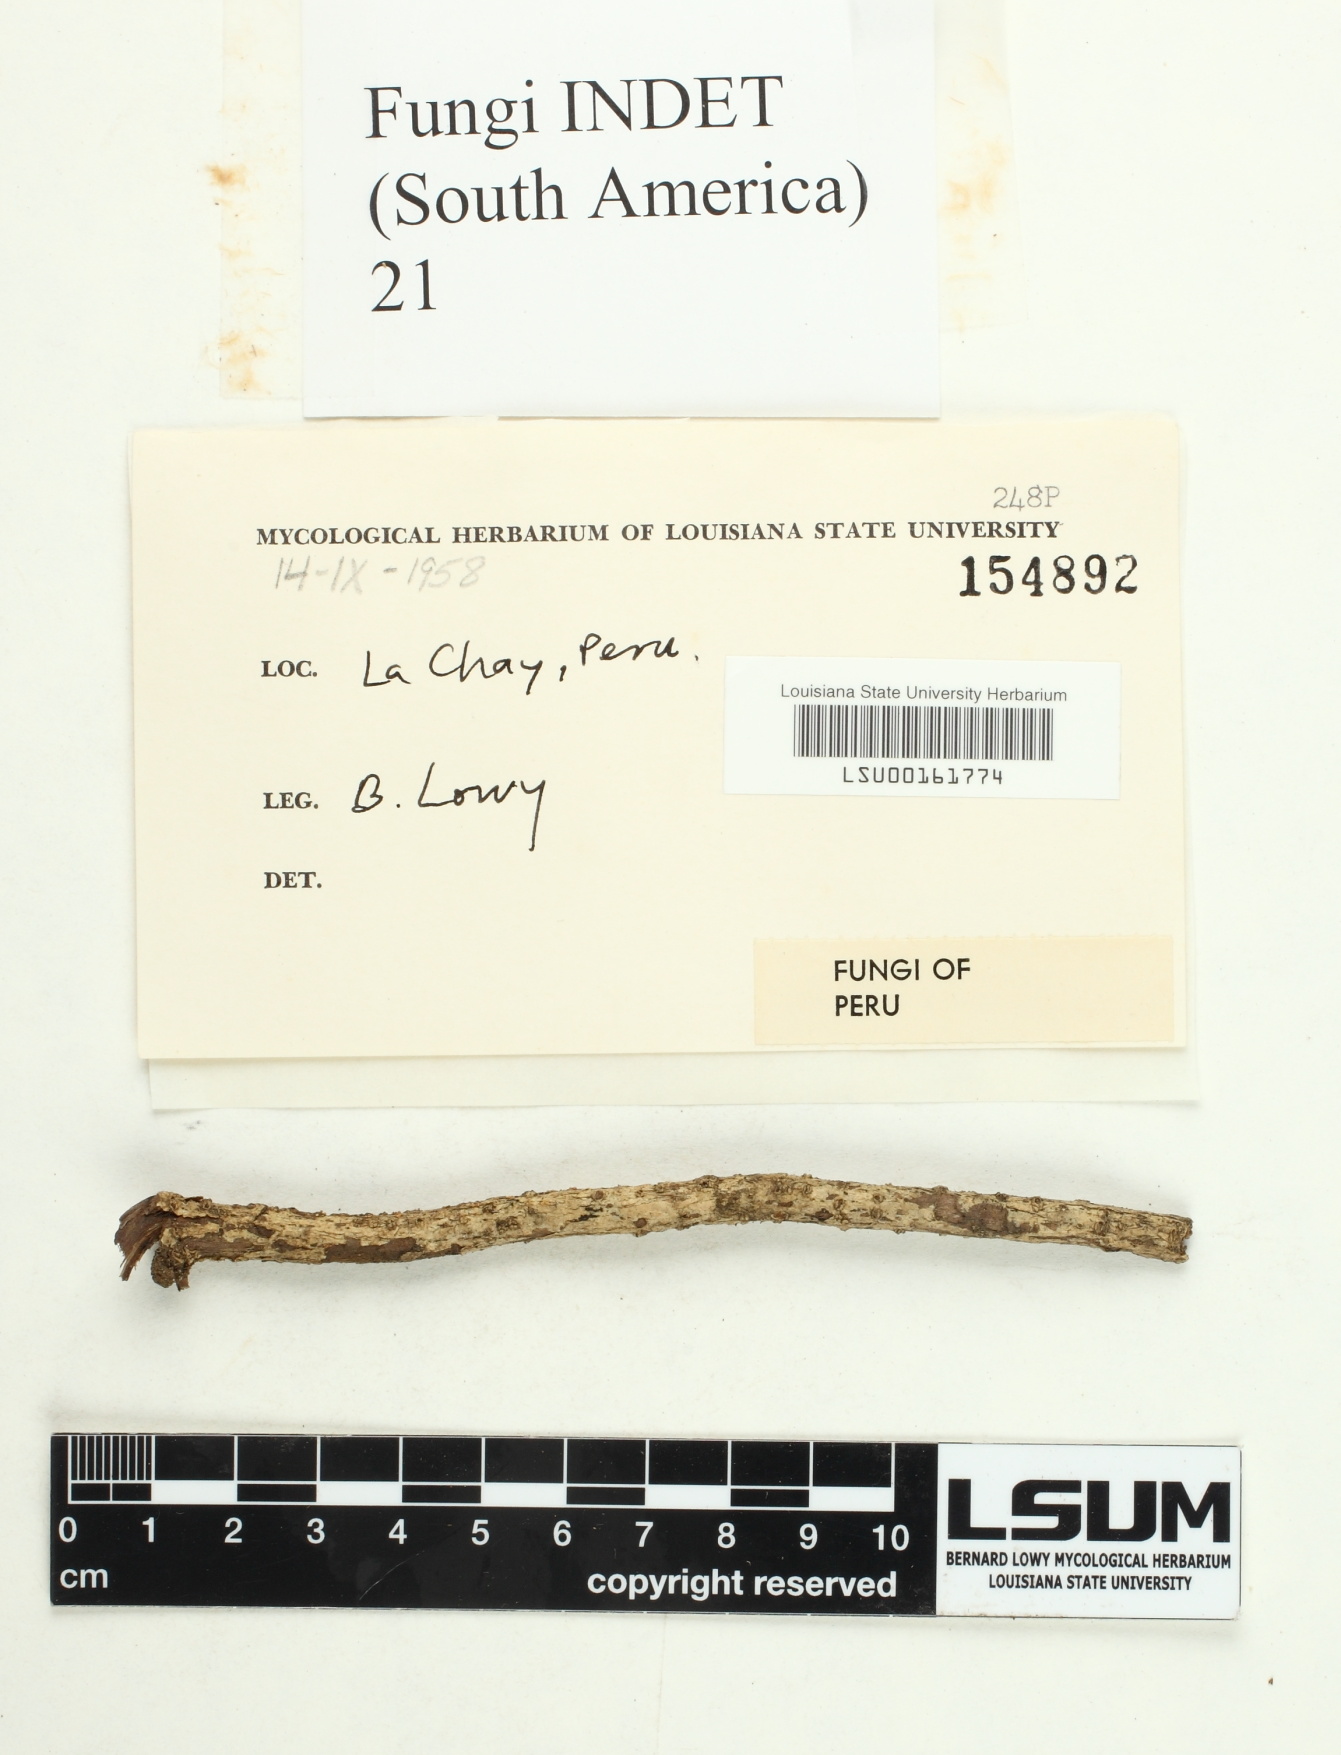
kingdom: Fungi
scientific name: Fungi
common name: Fungi
